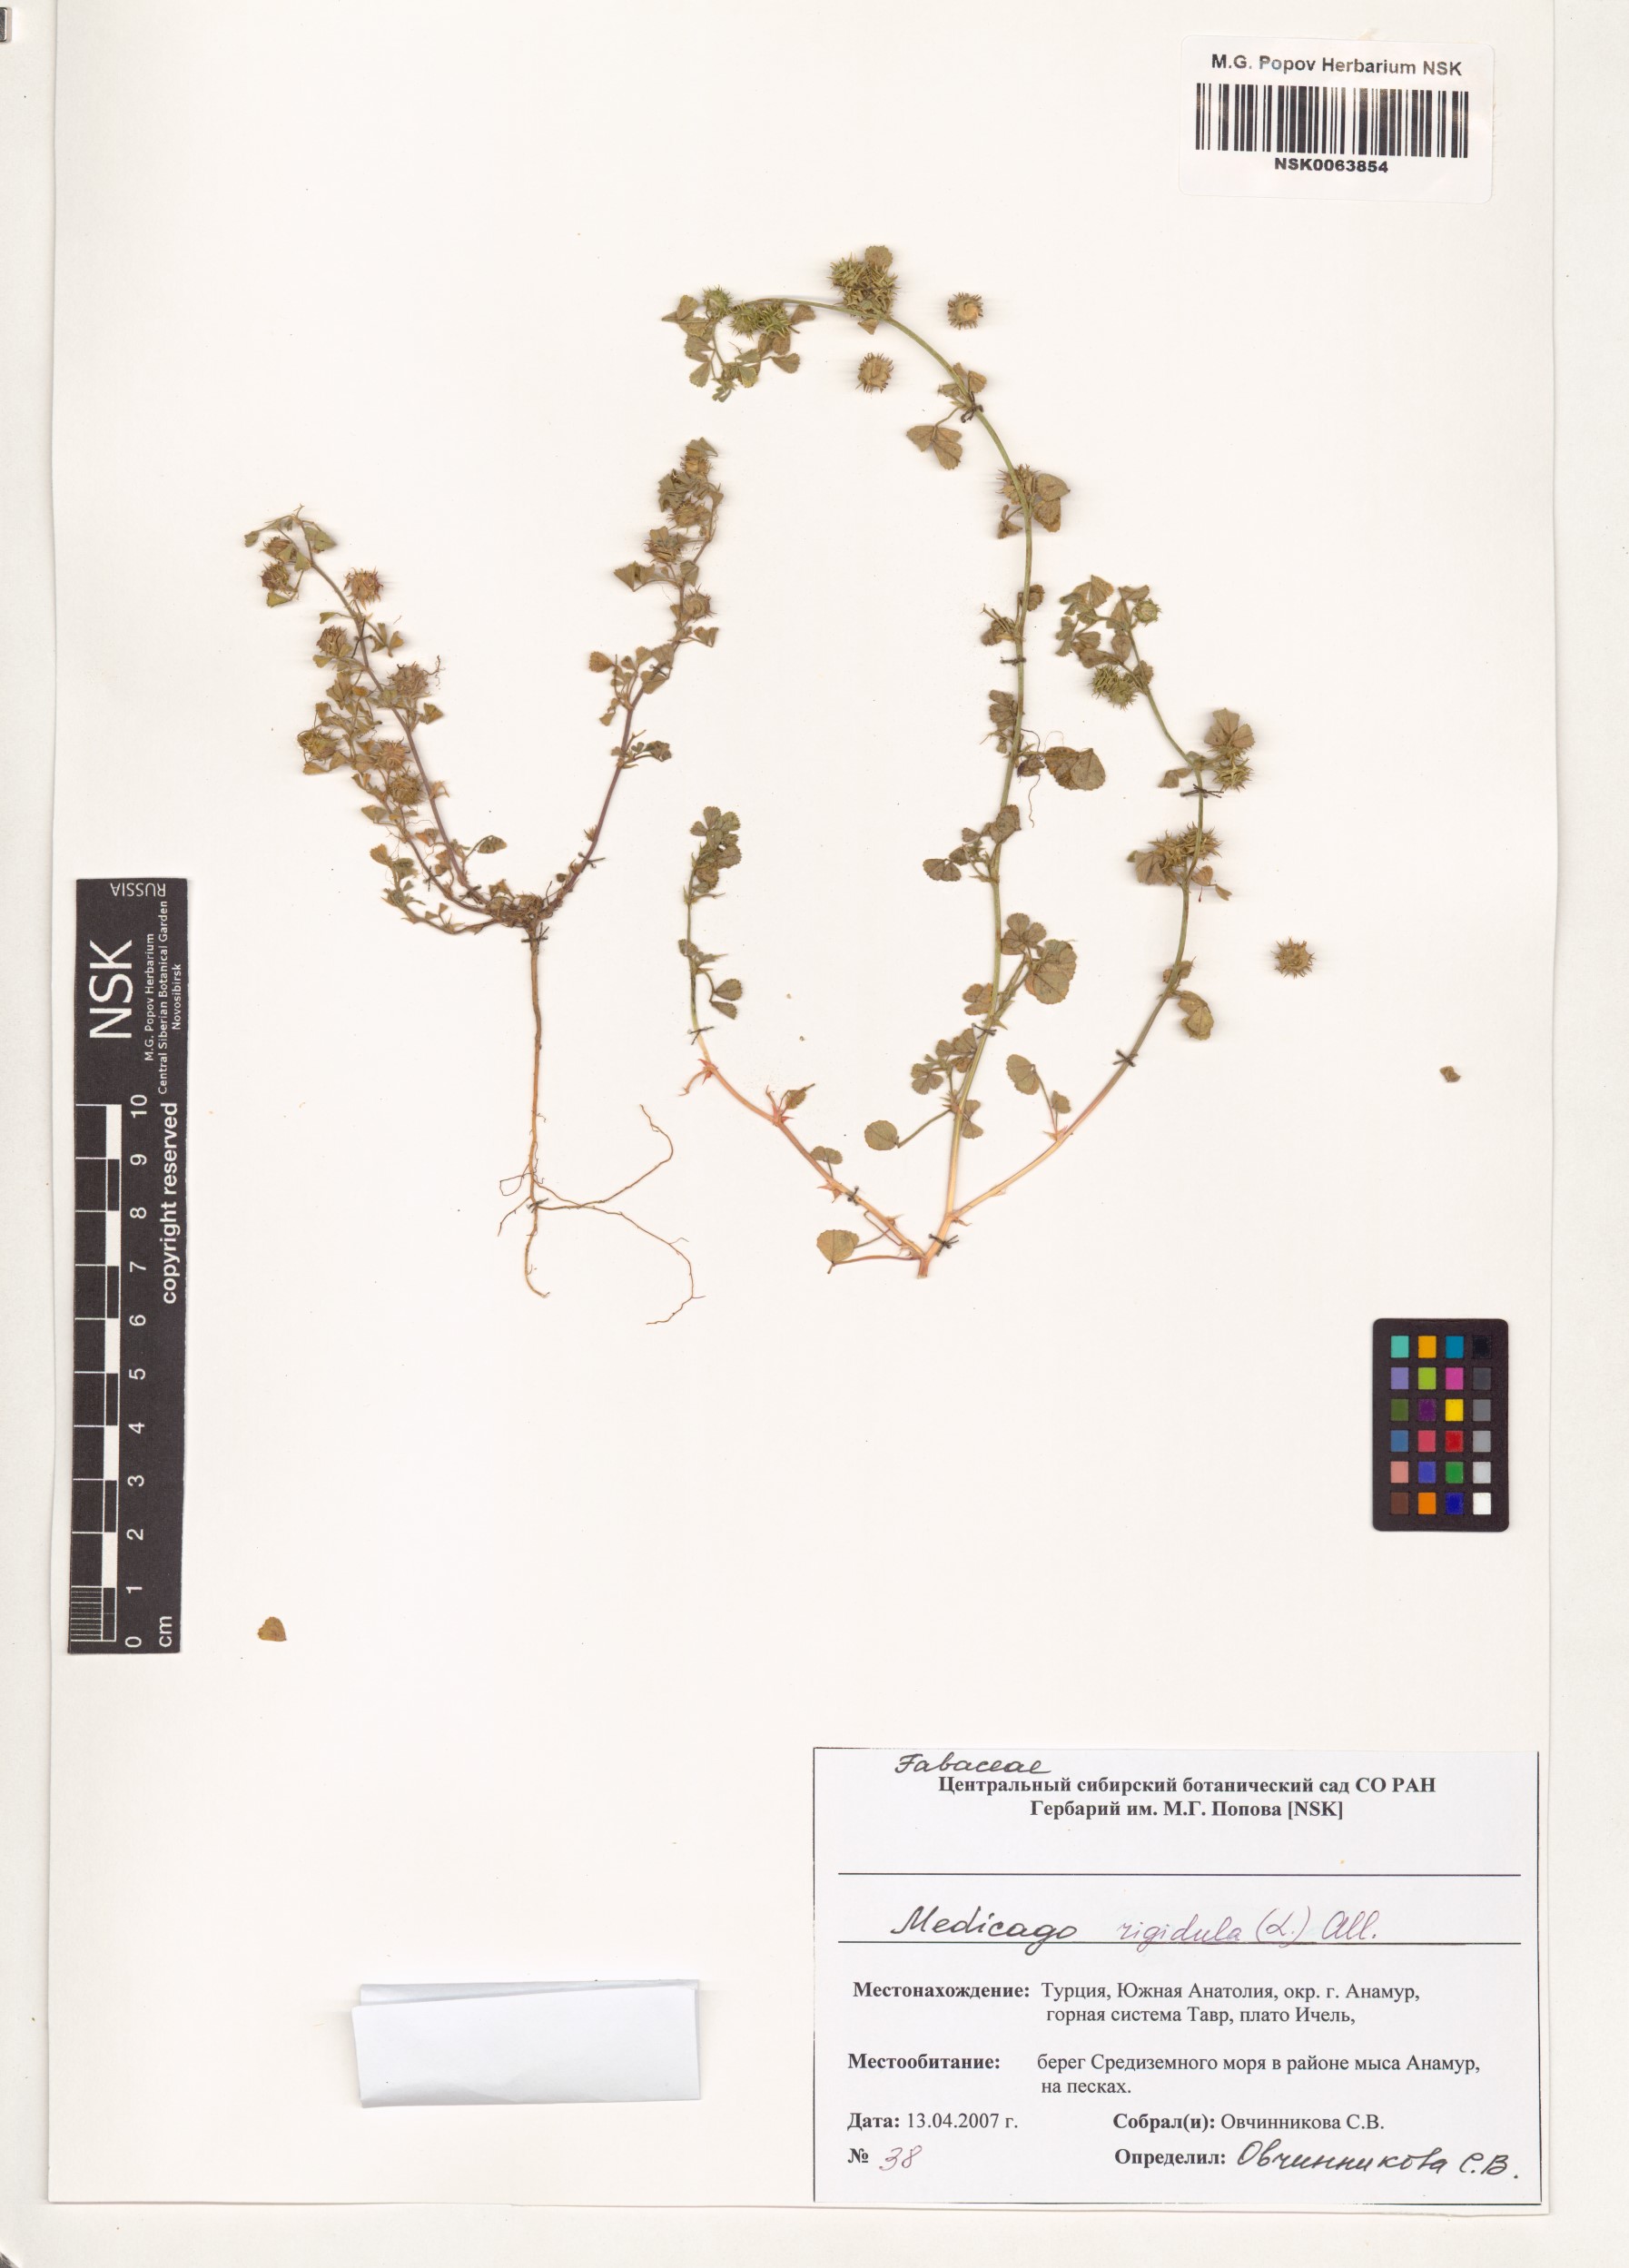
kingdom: Plantae
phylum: Tracheophyta
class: Magnoliopsida
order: Fabales
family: Fabaceae
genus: Medicago
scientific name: Medicago rigidula
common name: Tifton medic
